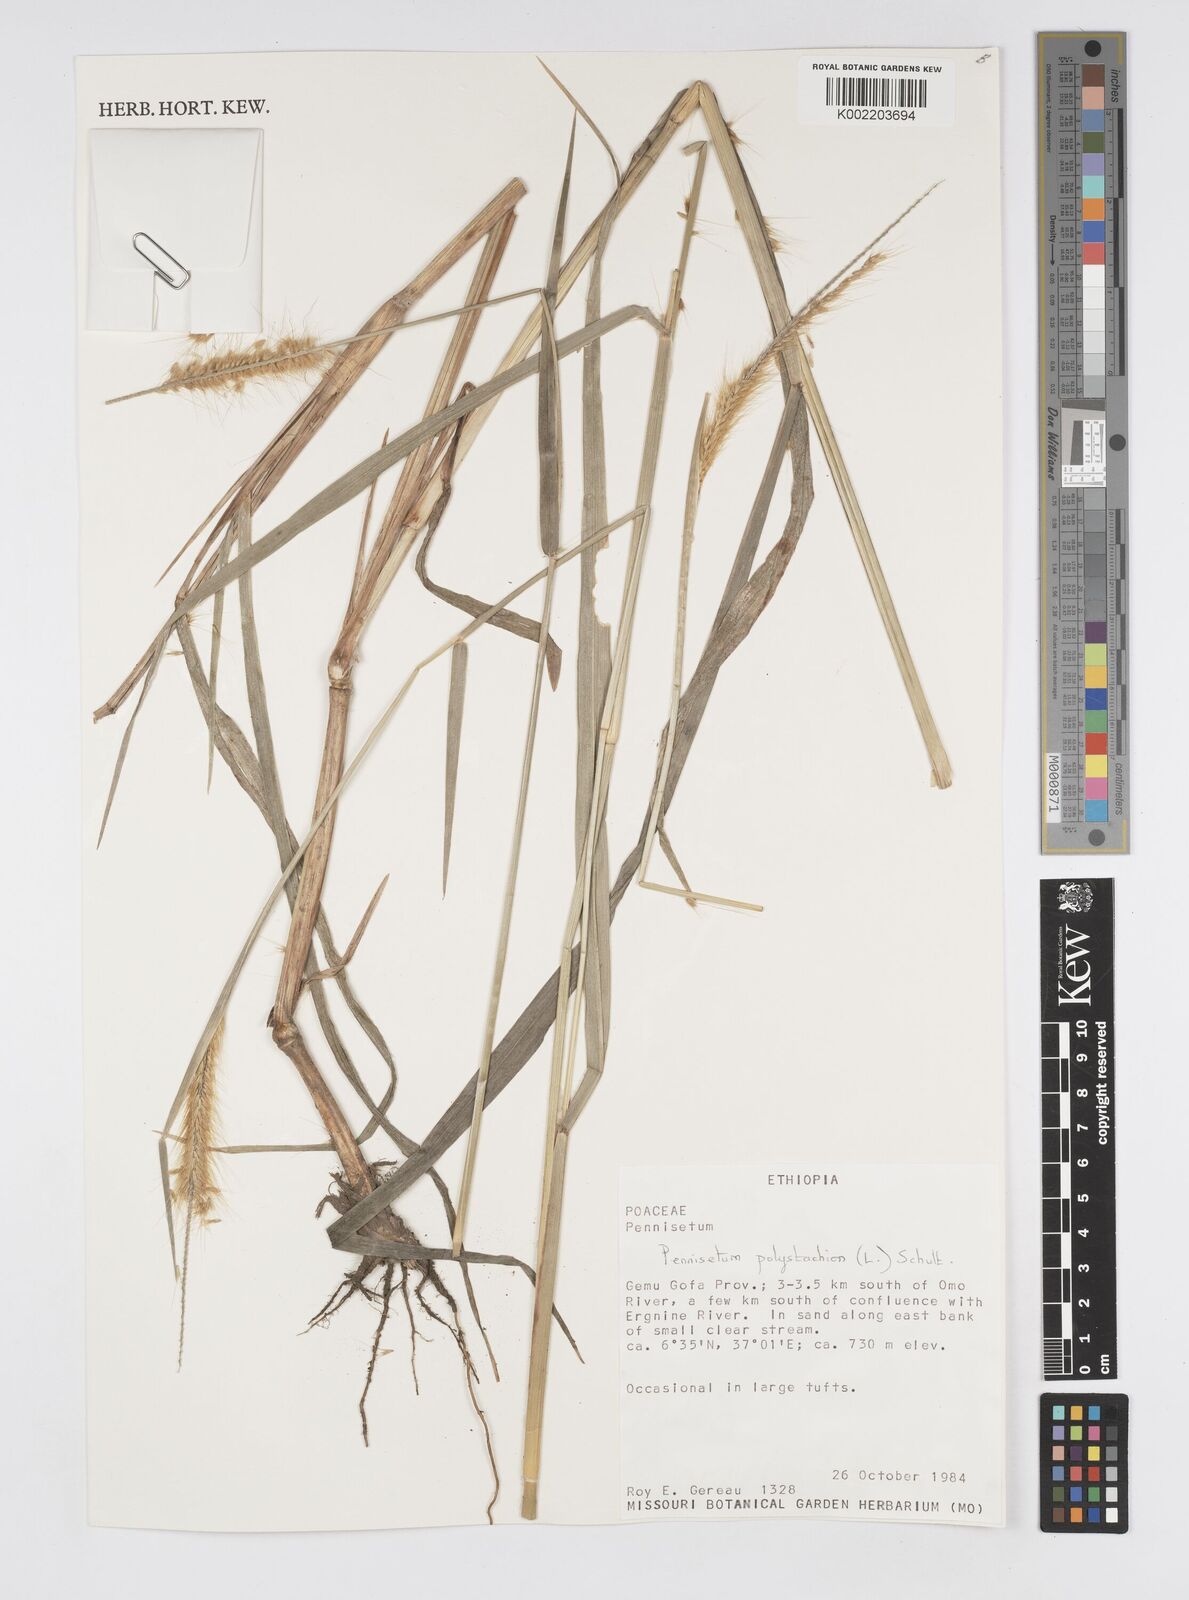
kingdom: Plantae
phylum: Tracheophyta
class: Liliopsida
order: Poales
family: Poaceae
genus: Setaria
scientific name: Setaria parviflora
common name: Knotroot bristle-grass
